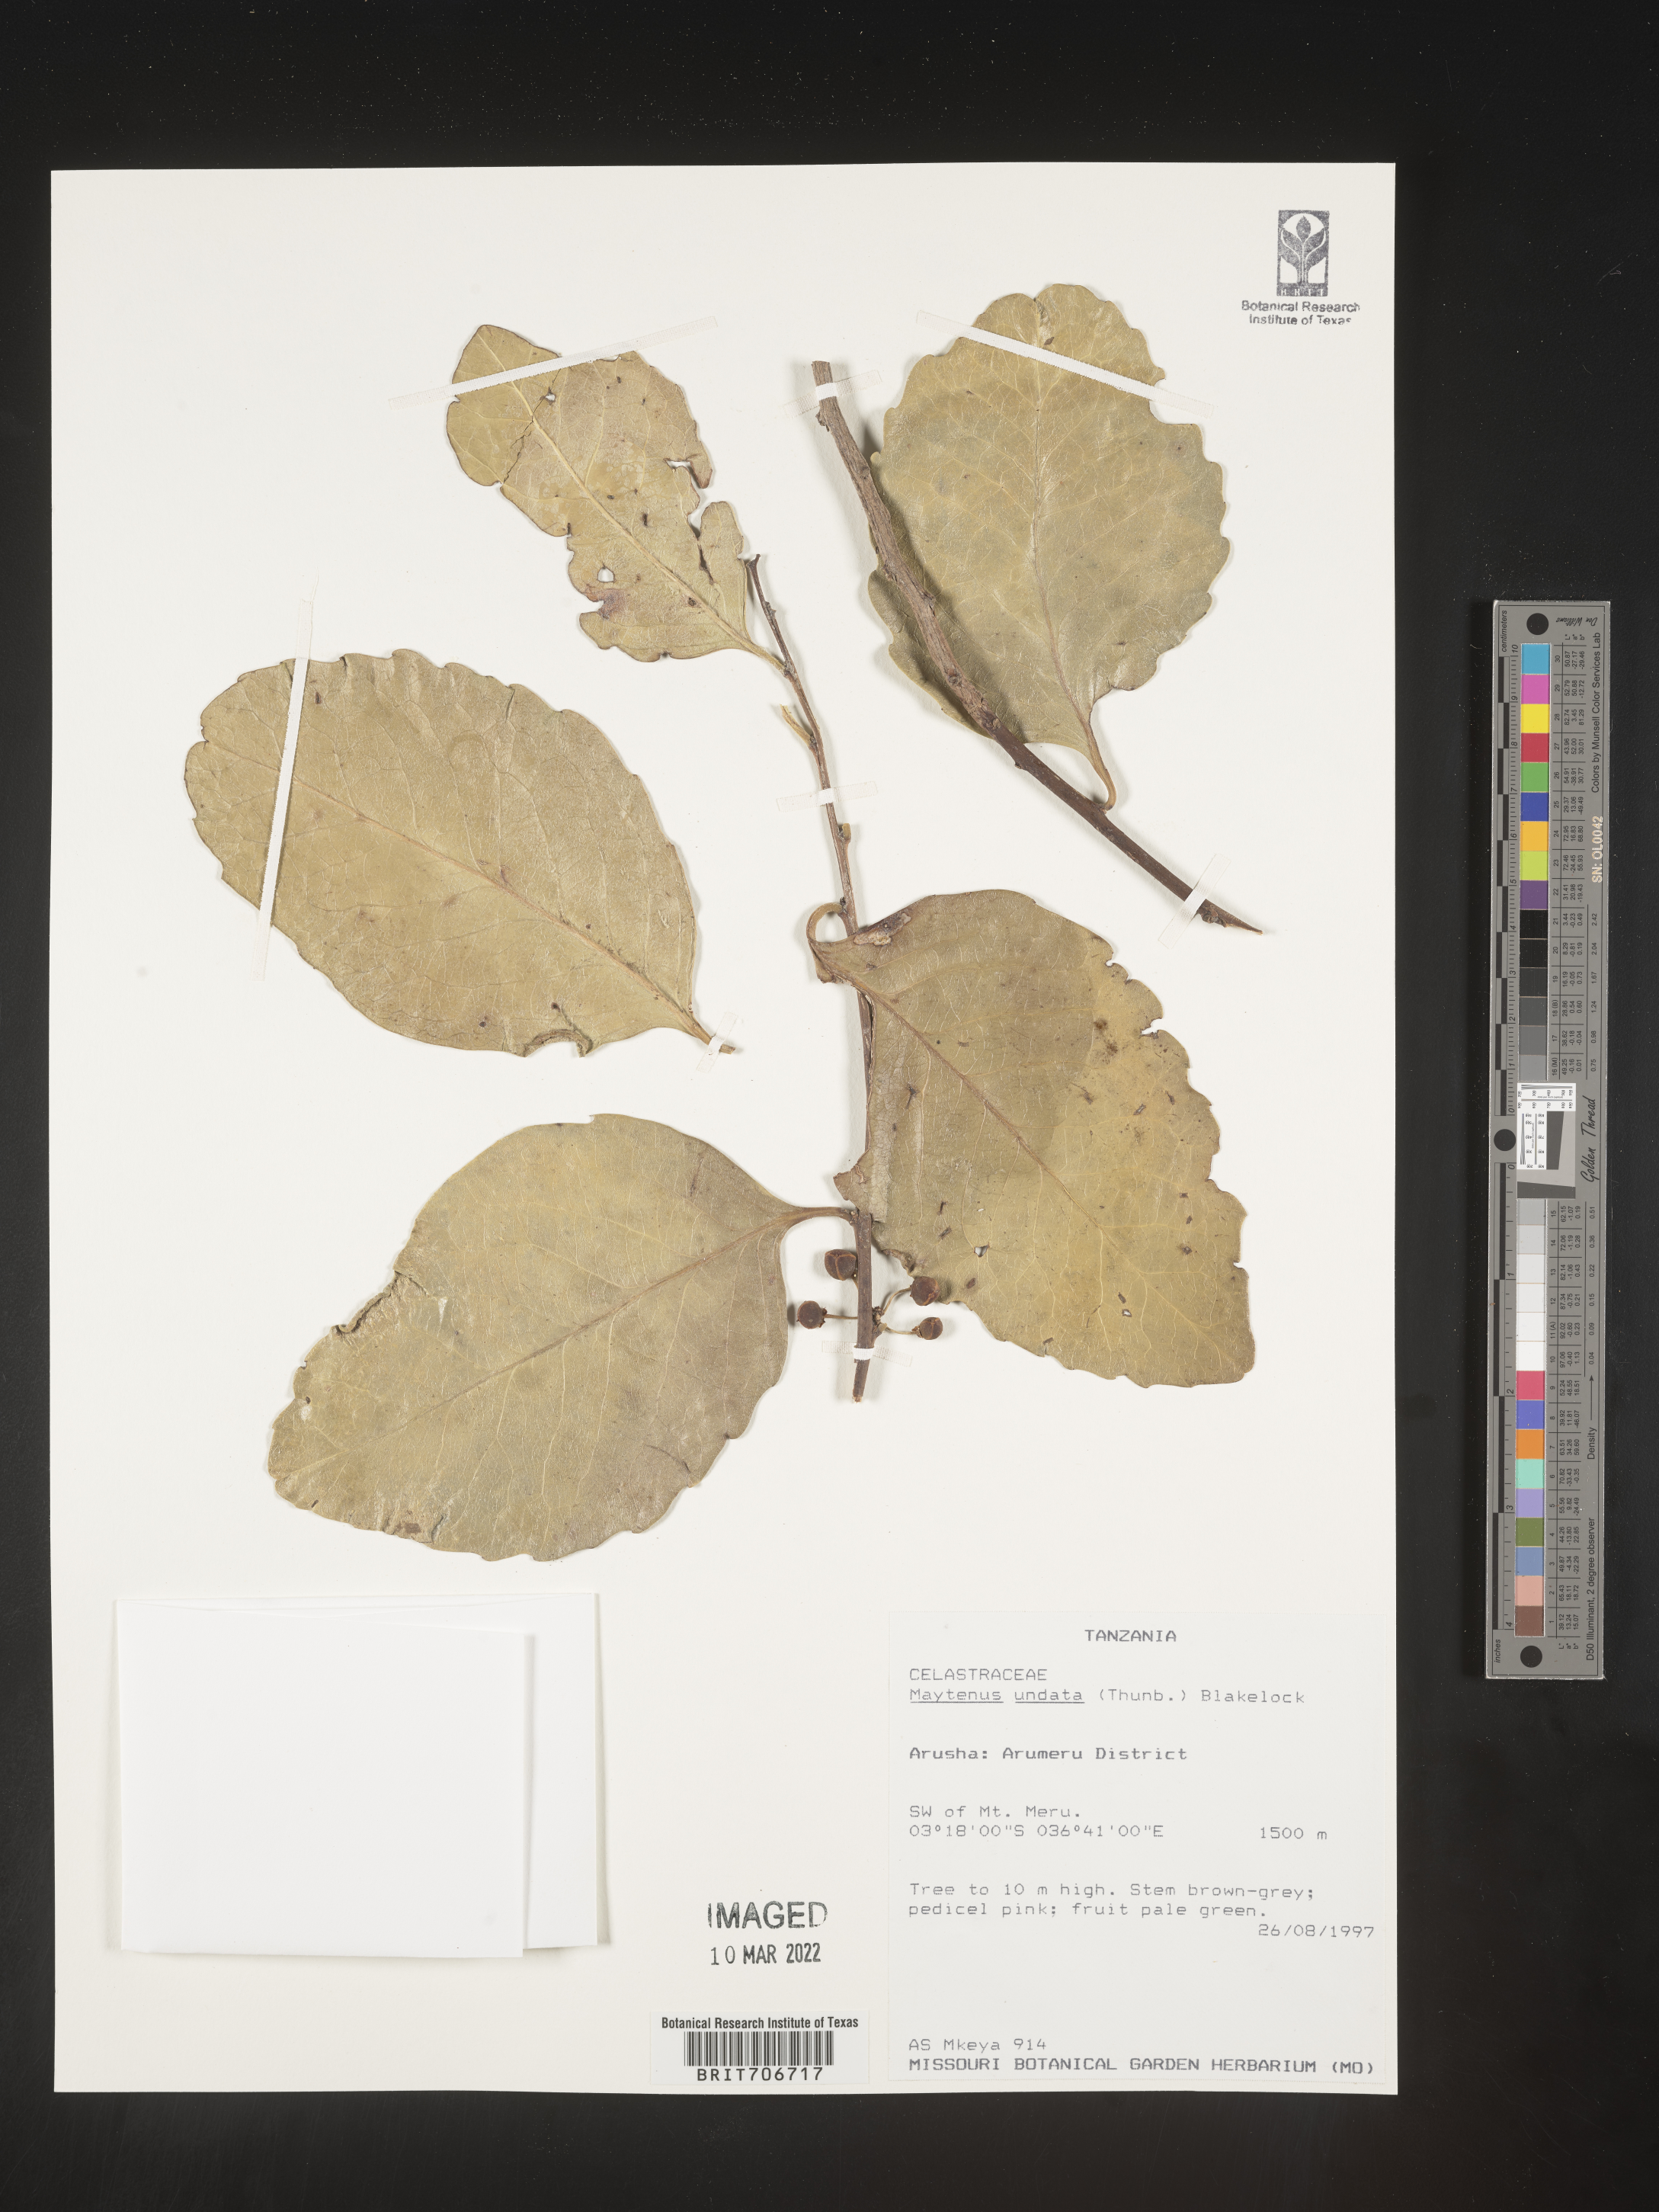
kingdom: Plantae
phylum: Tracheophyta
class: Magnoliopsida
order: Celastrales
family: Celastraceae
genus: Maytenus
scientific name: Maytenus
